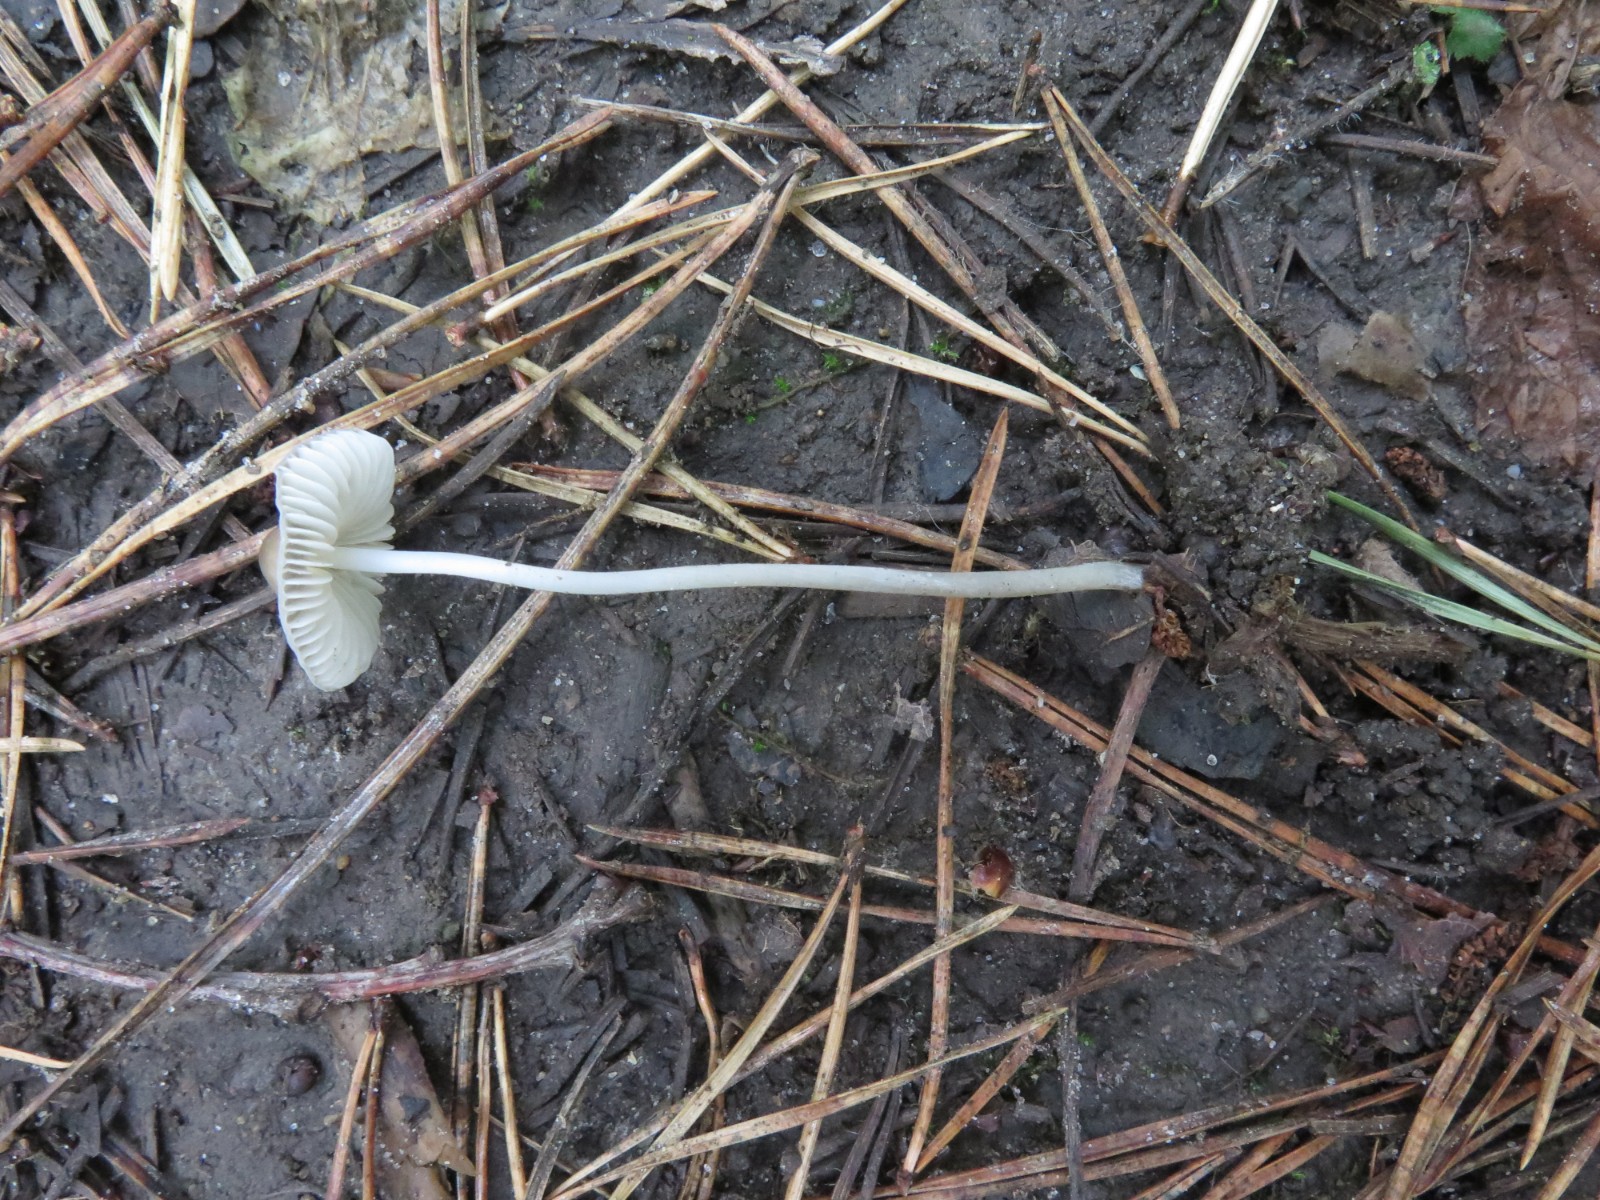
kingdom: Fungi
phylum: Basidiomycota
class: Agaricomycetes
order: Agaricales
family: Mycenaceae
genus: Mycena
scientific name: Mycena vitilis
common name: blankstokket huesvamp
